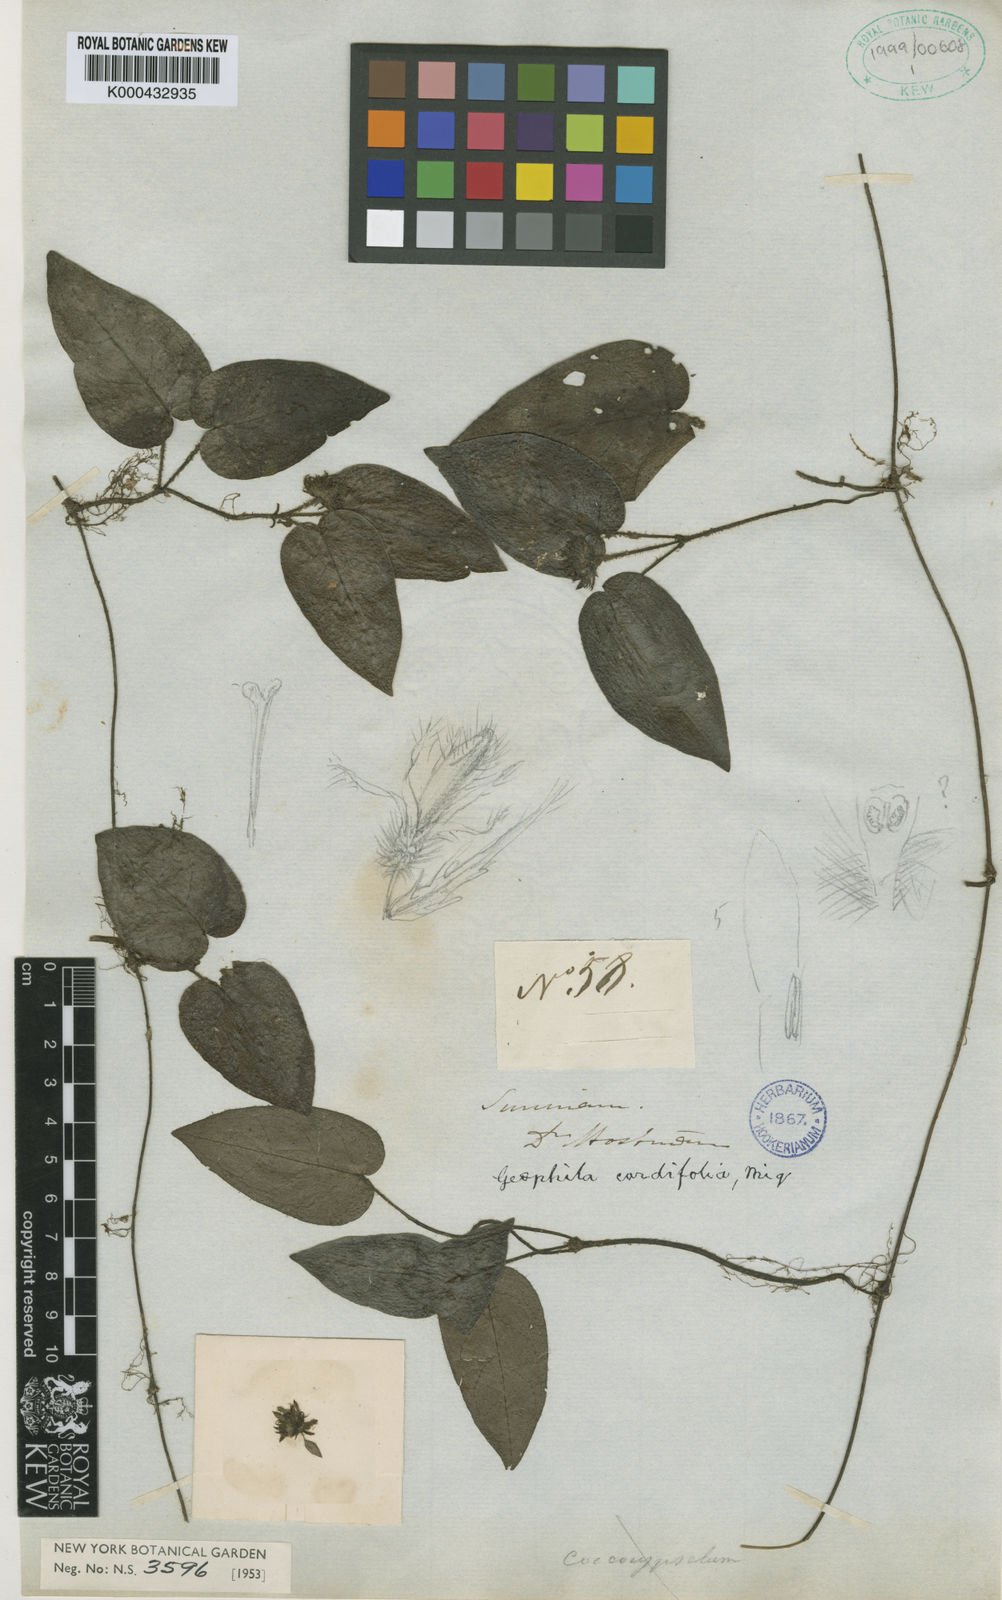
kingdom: Plantae
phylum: Tracheophyta
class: Magnoliopsida
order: Gentianales
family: Rubiaceae
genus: Geophila
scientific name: Geophila cordifolia
